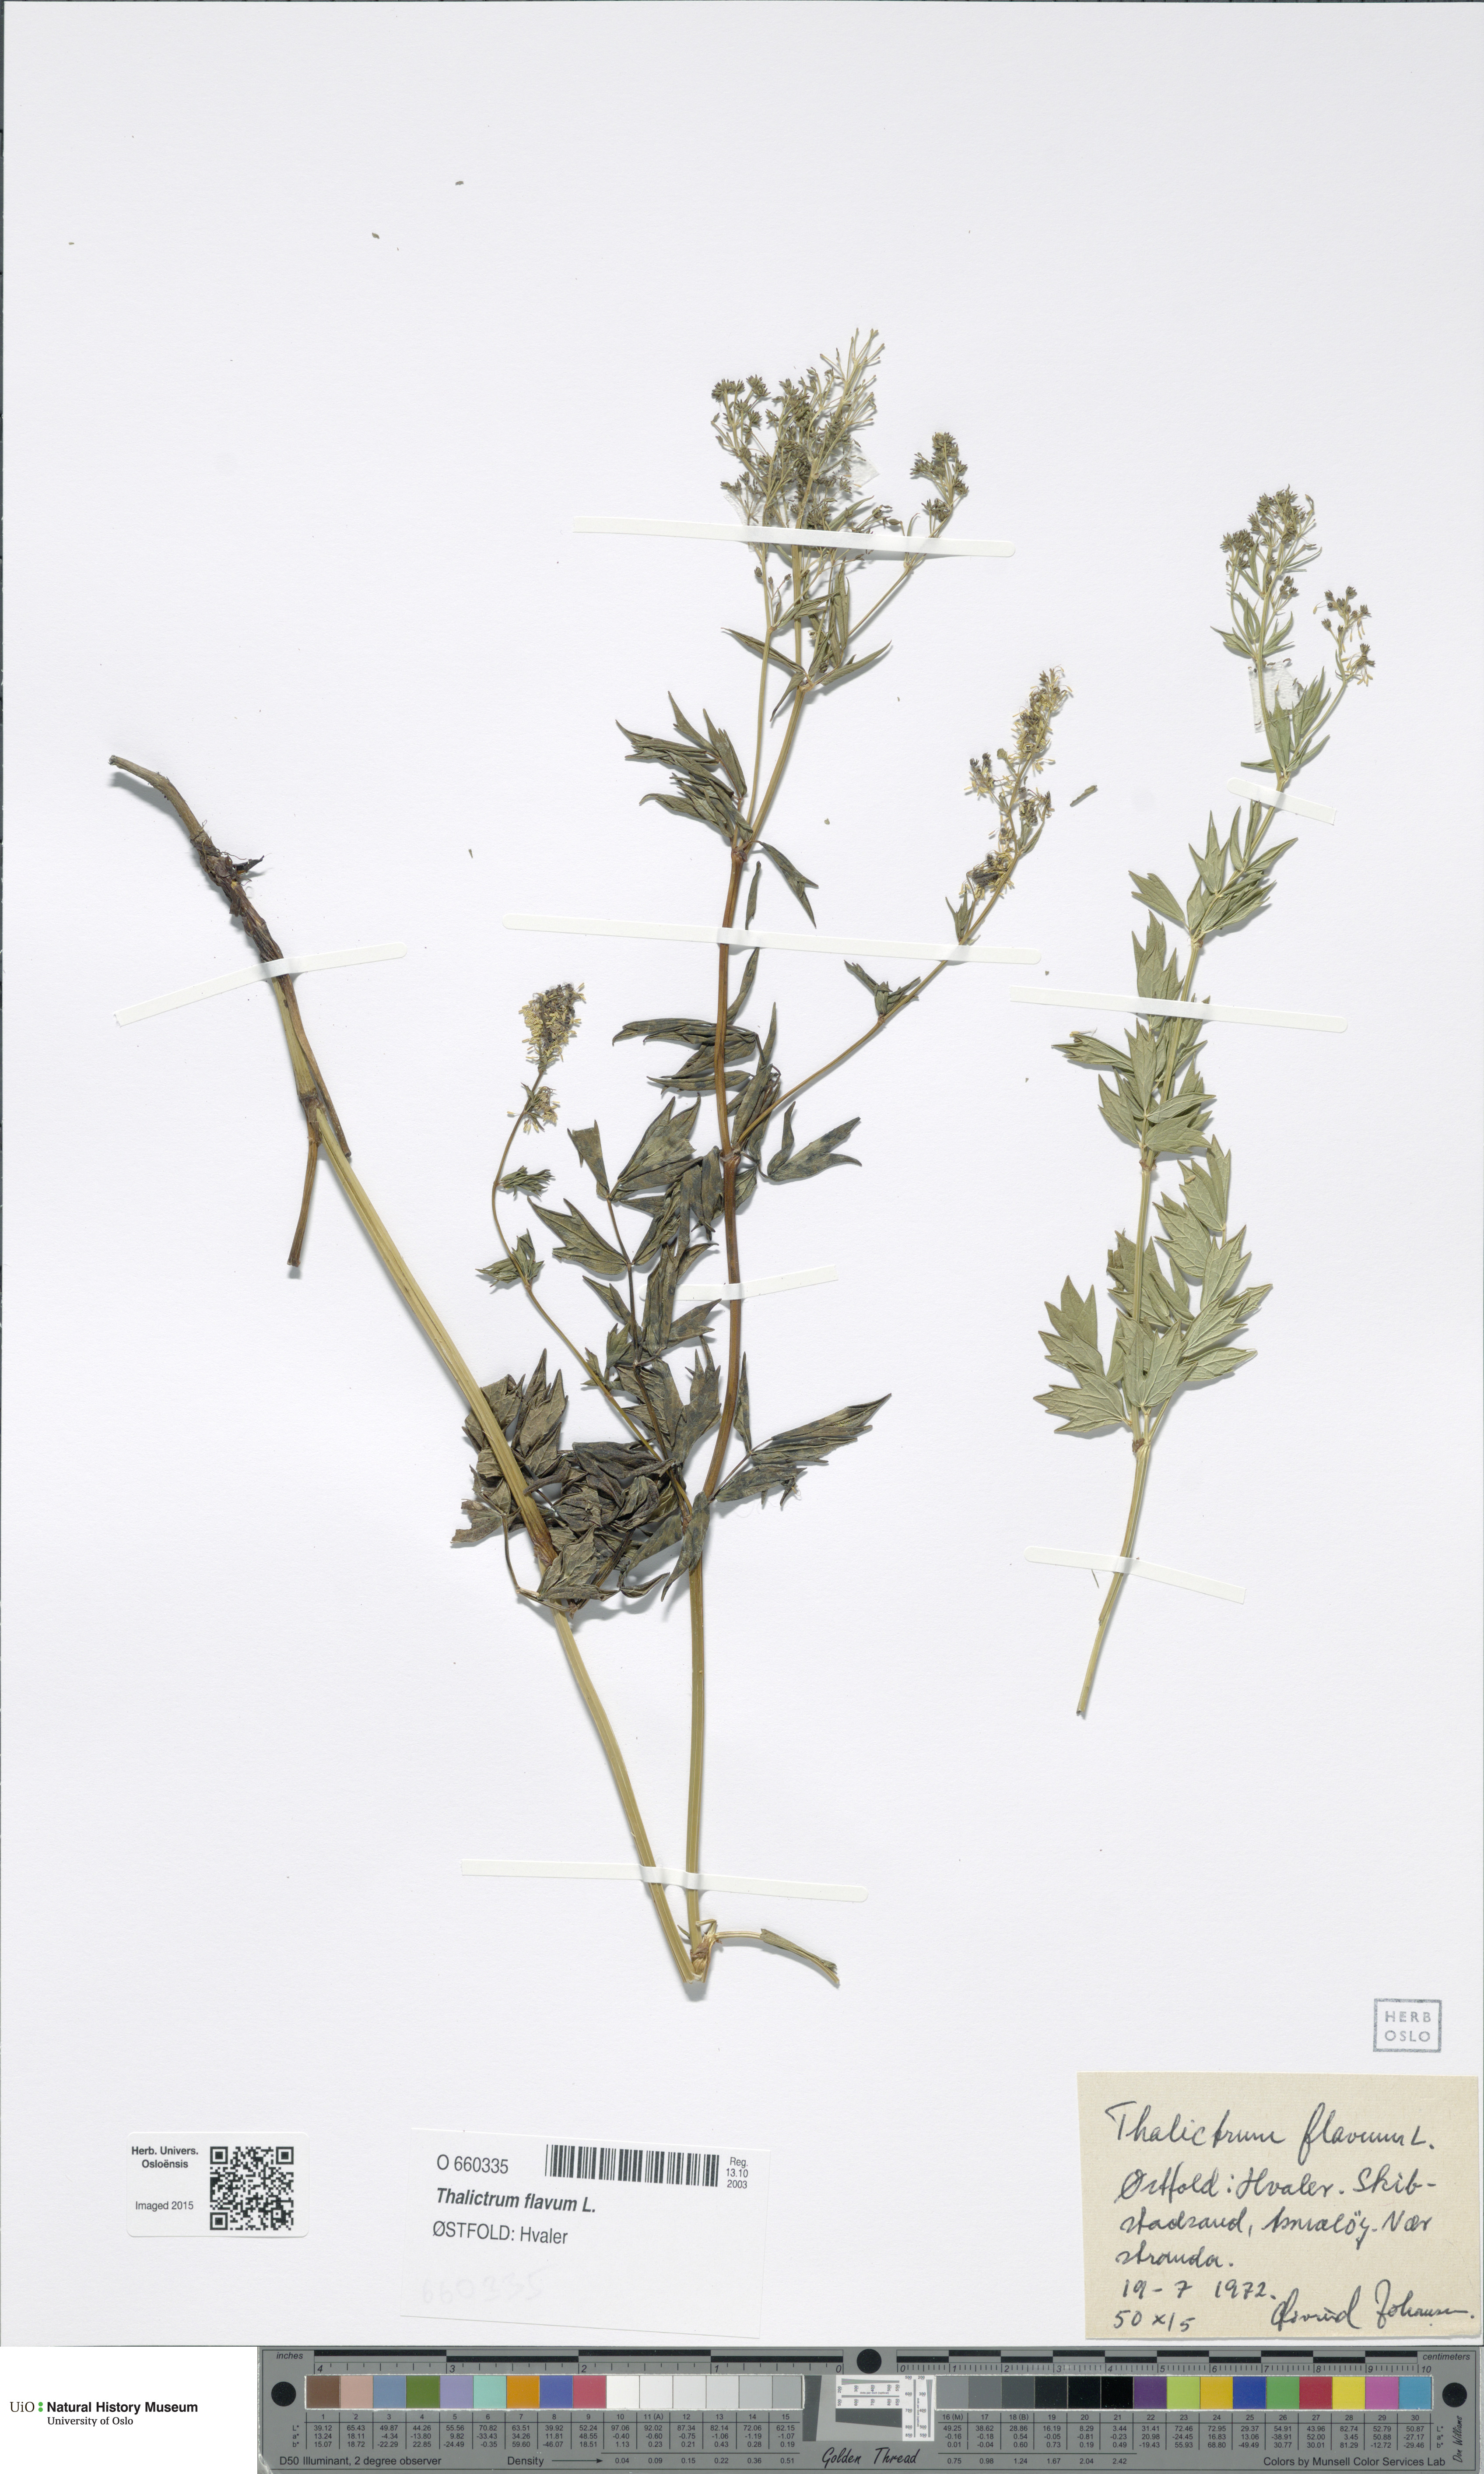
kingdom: Plantae
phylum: Tracheophyta
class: Magnoliopsida
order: Ranunculales
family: Ranunculaceae
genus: Thalictrum
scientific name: Thalictrum flavum
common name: Common meadow-rue
